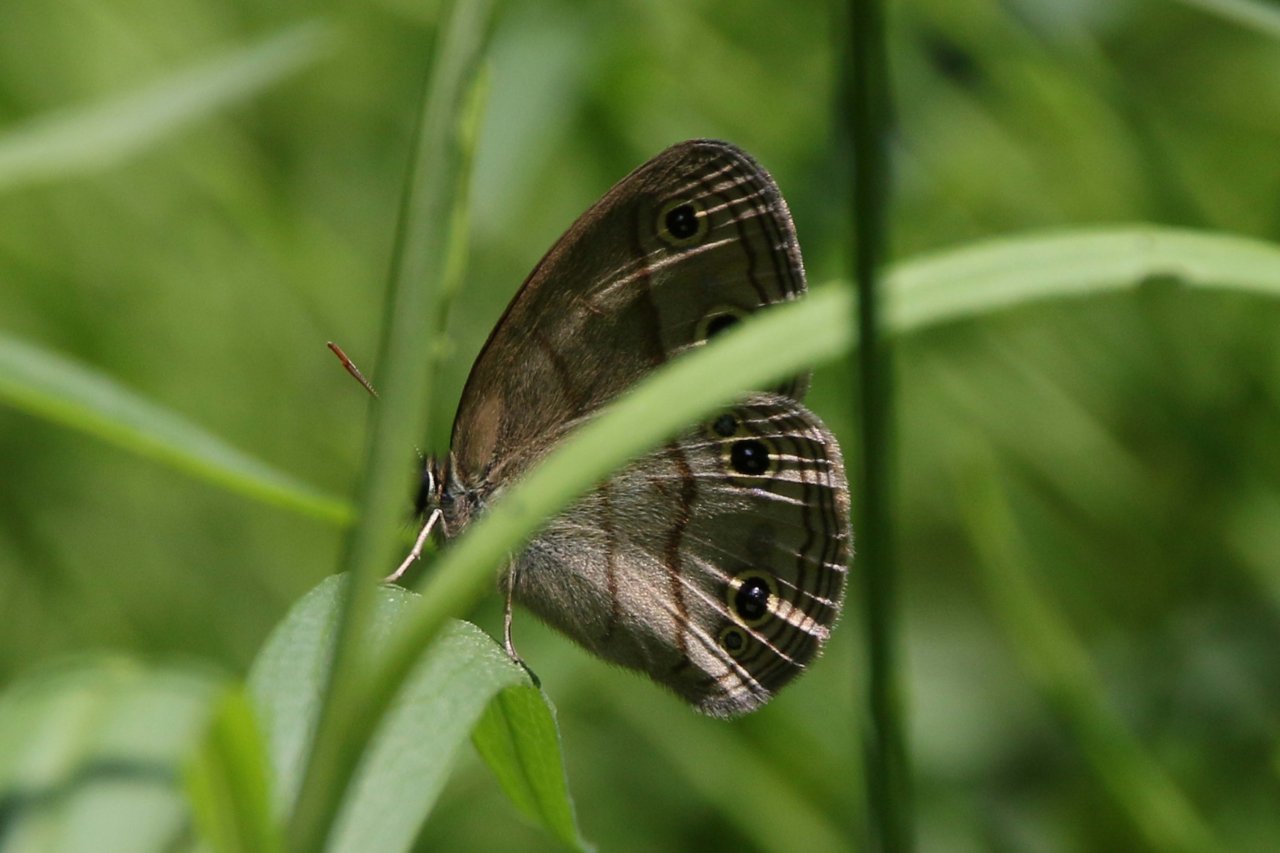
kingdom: Animalia
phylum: Arthropoda
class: Insecta
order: Lepidoptera
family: Nymphalidae
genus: Euptychia
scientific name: Euptychia cymela
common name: Little Wood Satyr
